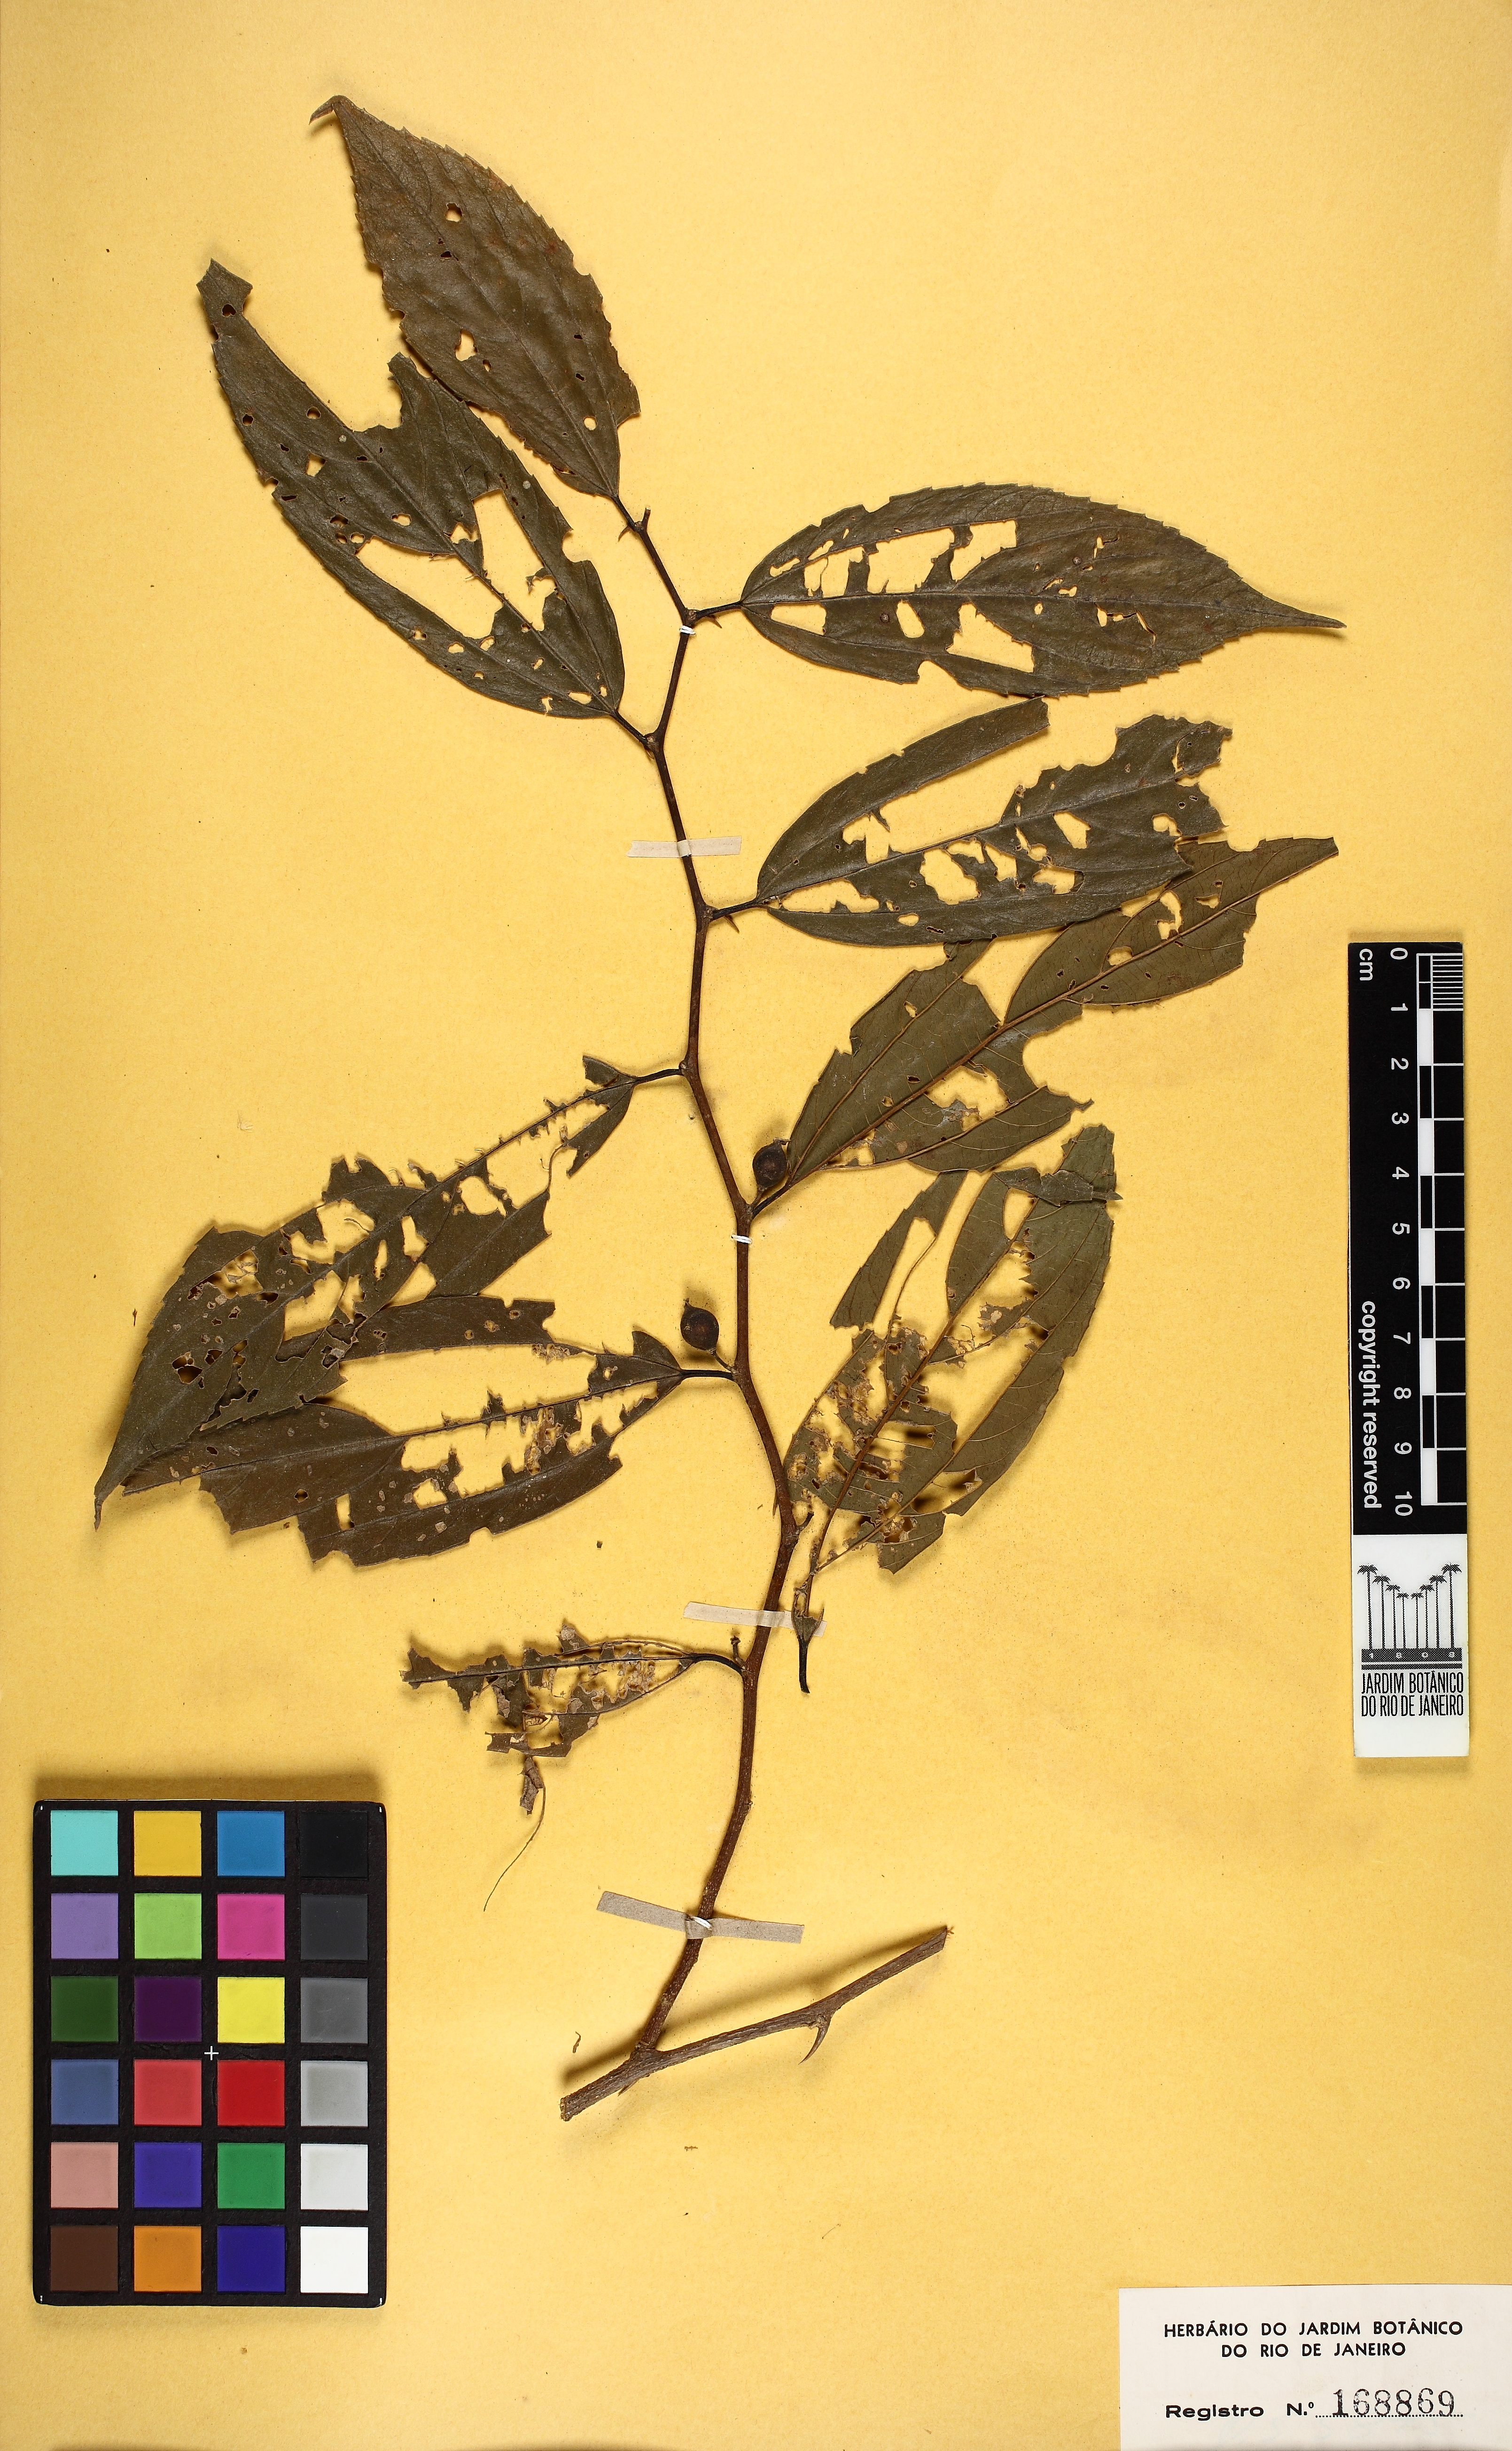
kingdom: Plantae
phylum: Tracheophyta
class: Magnoliopsida
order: Rosales
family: Cannabaceae
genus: Celtis
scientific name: Celtis iguanaea
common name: Iguana hackberry
